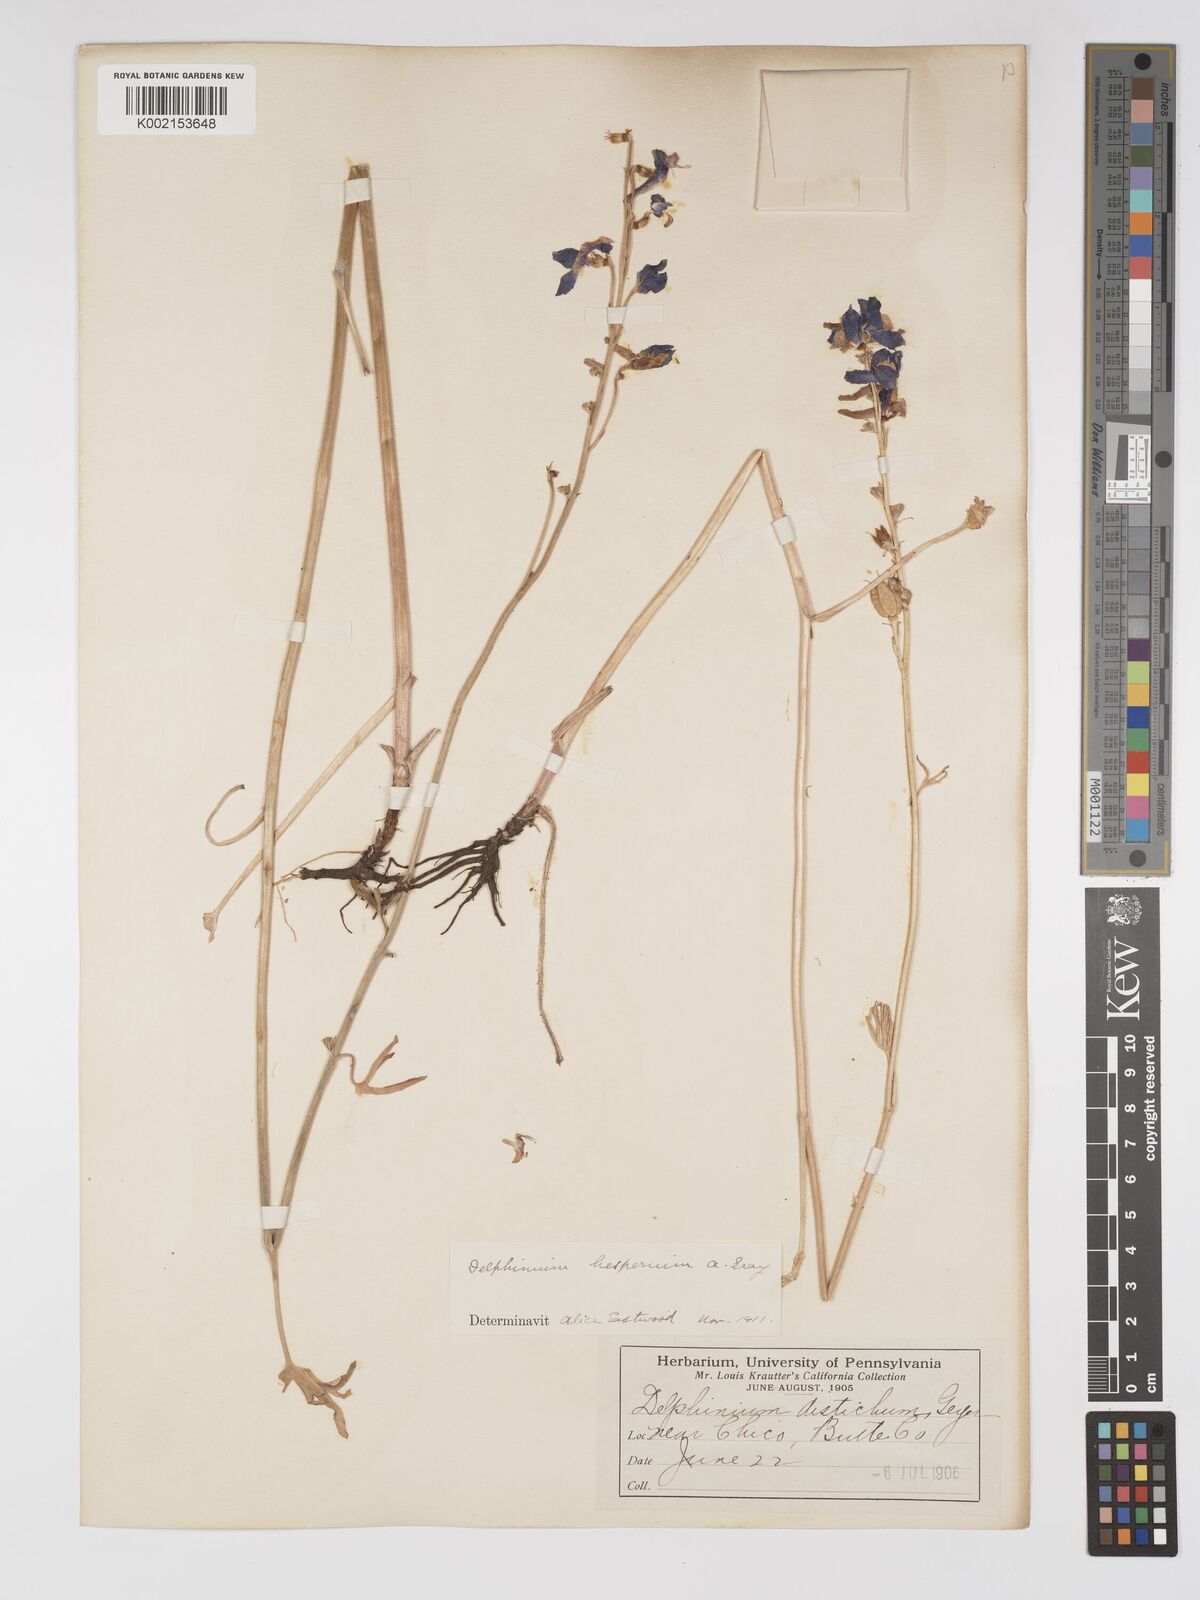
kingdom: Plantae
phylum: Tracheophyta
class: Magnoliopsida
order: Ranunculales
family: Ranunculaceae
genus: Delphinium
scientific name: Delphinium hesperium
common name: Western larkspur
